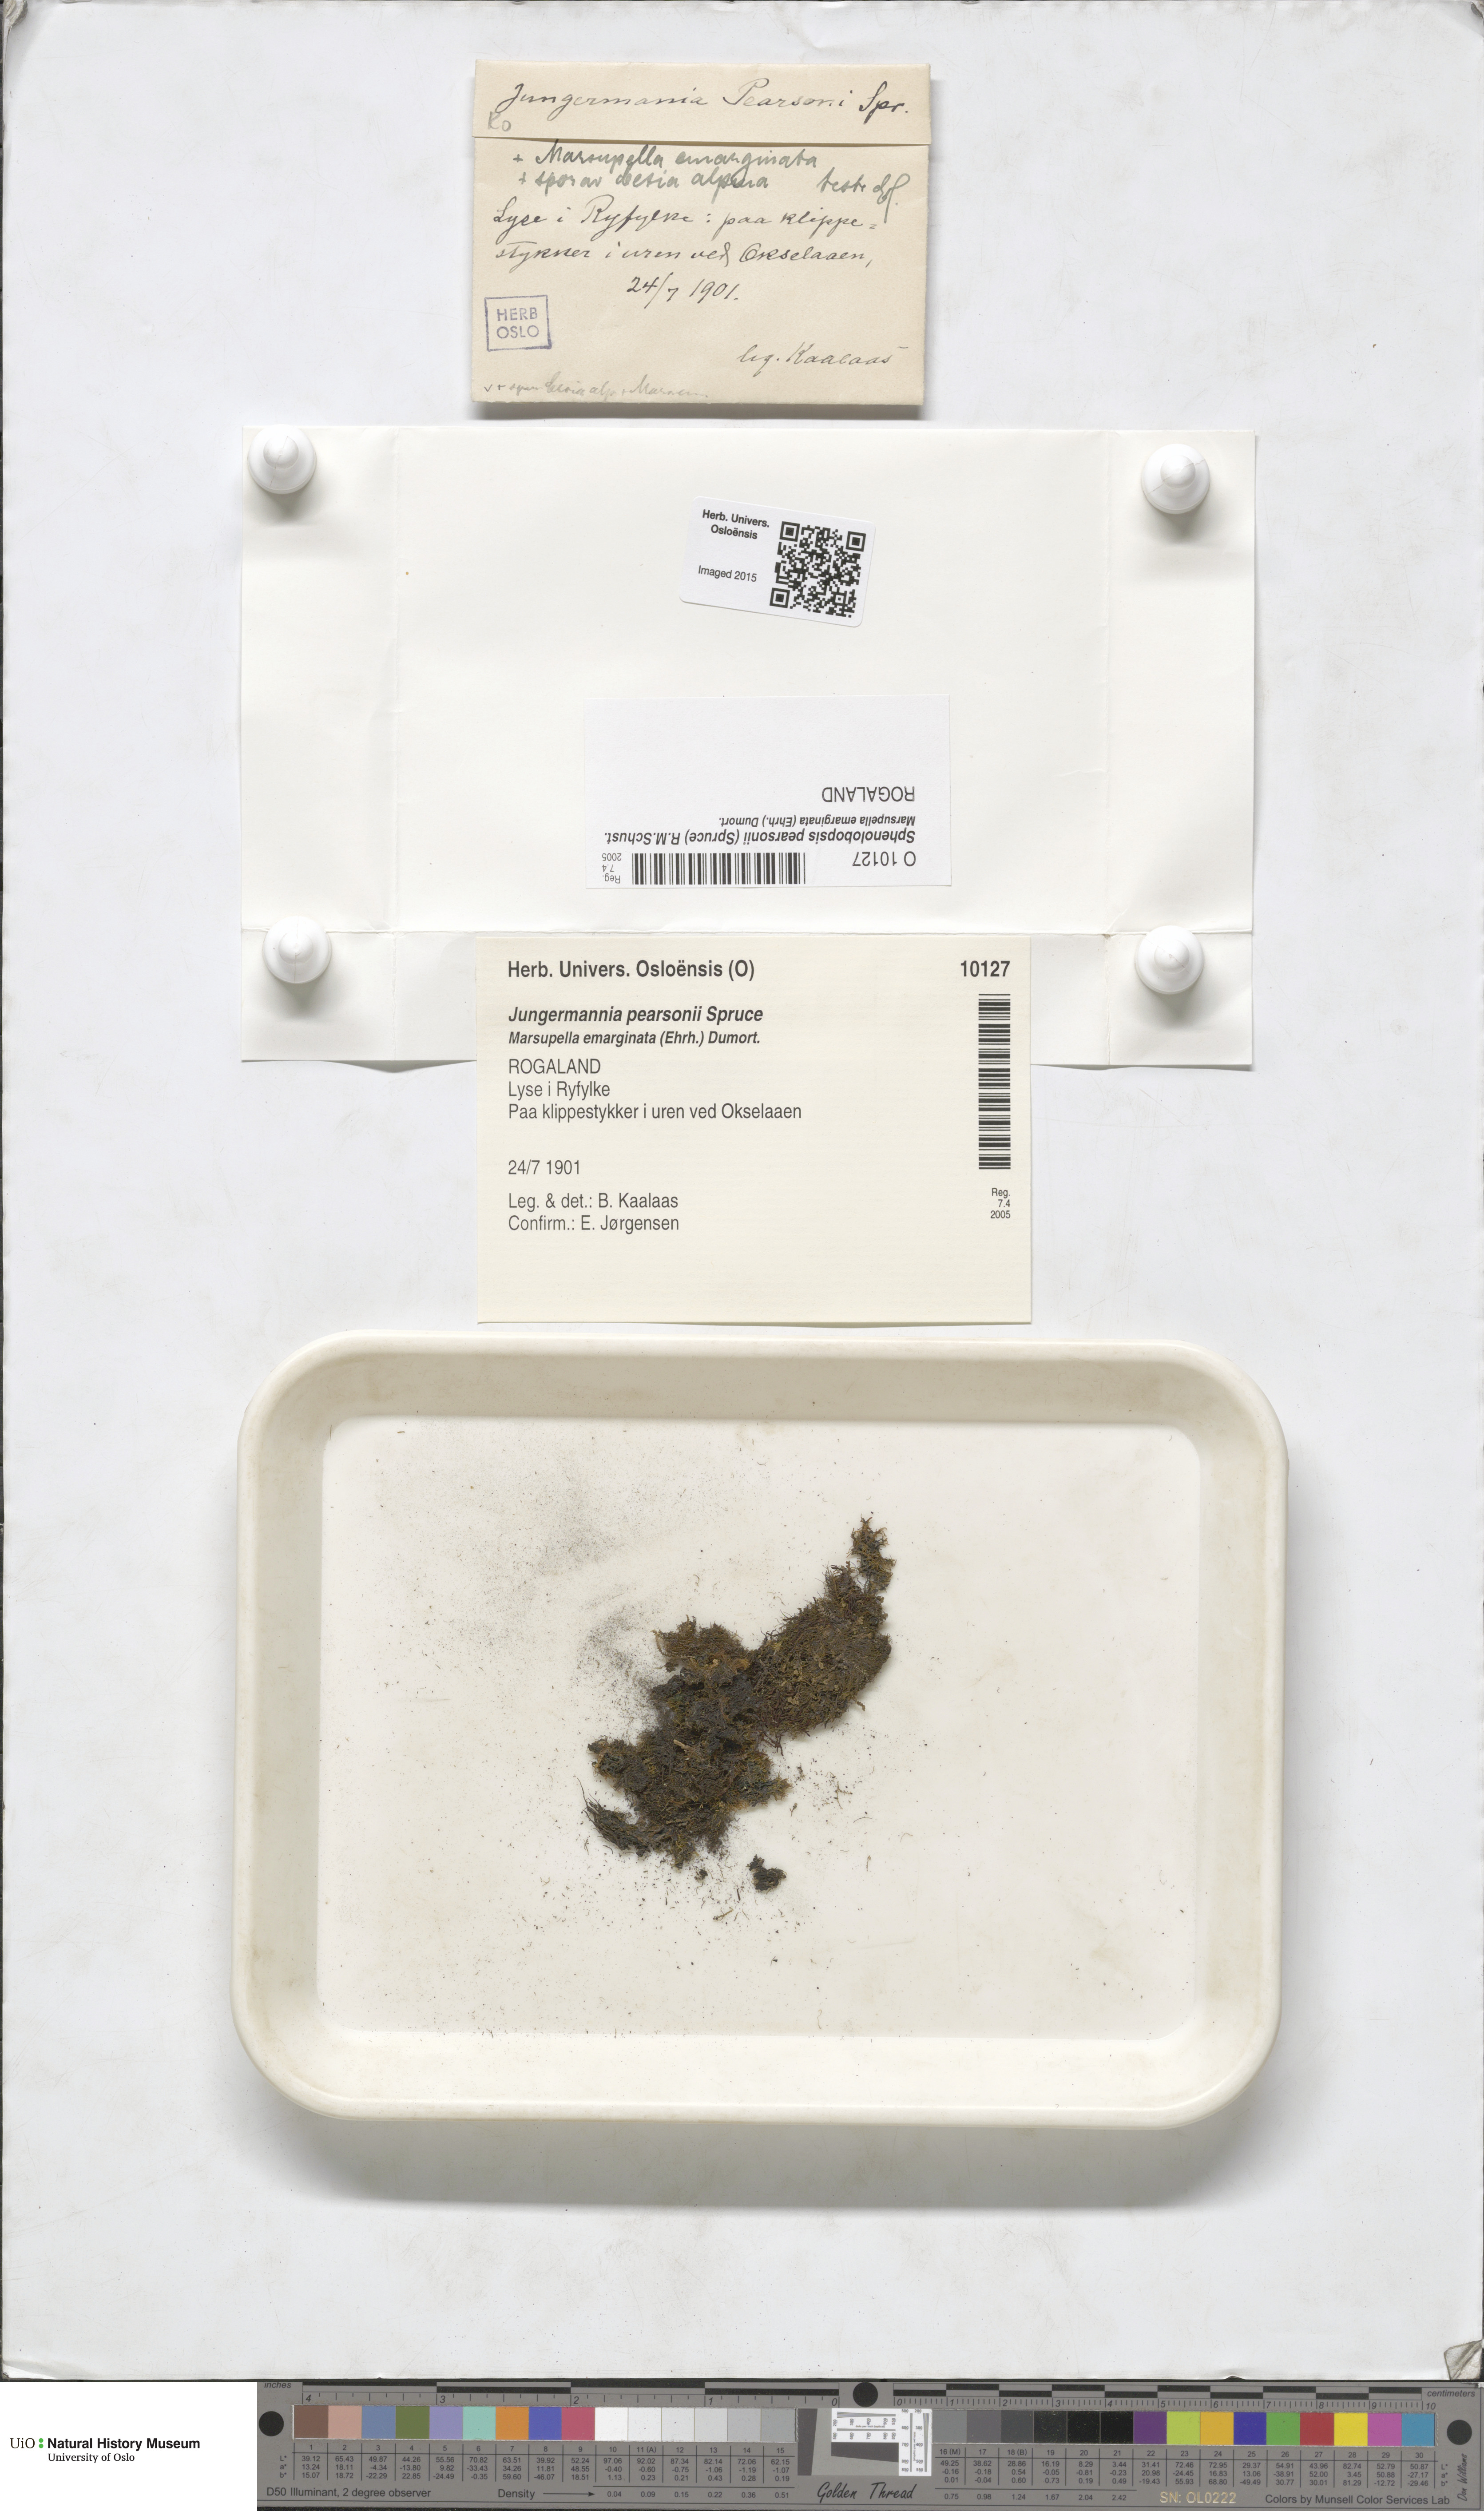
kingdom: Plantae
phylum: Marchantiophyta
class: Jungermanniopsida
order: Jungermanniales
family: Anastrophyllaceae
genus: Sphenolobopsis
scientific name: Sphenolobopsis pearsonii
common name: Horsehair threadwort
